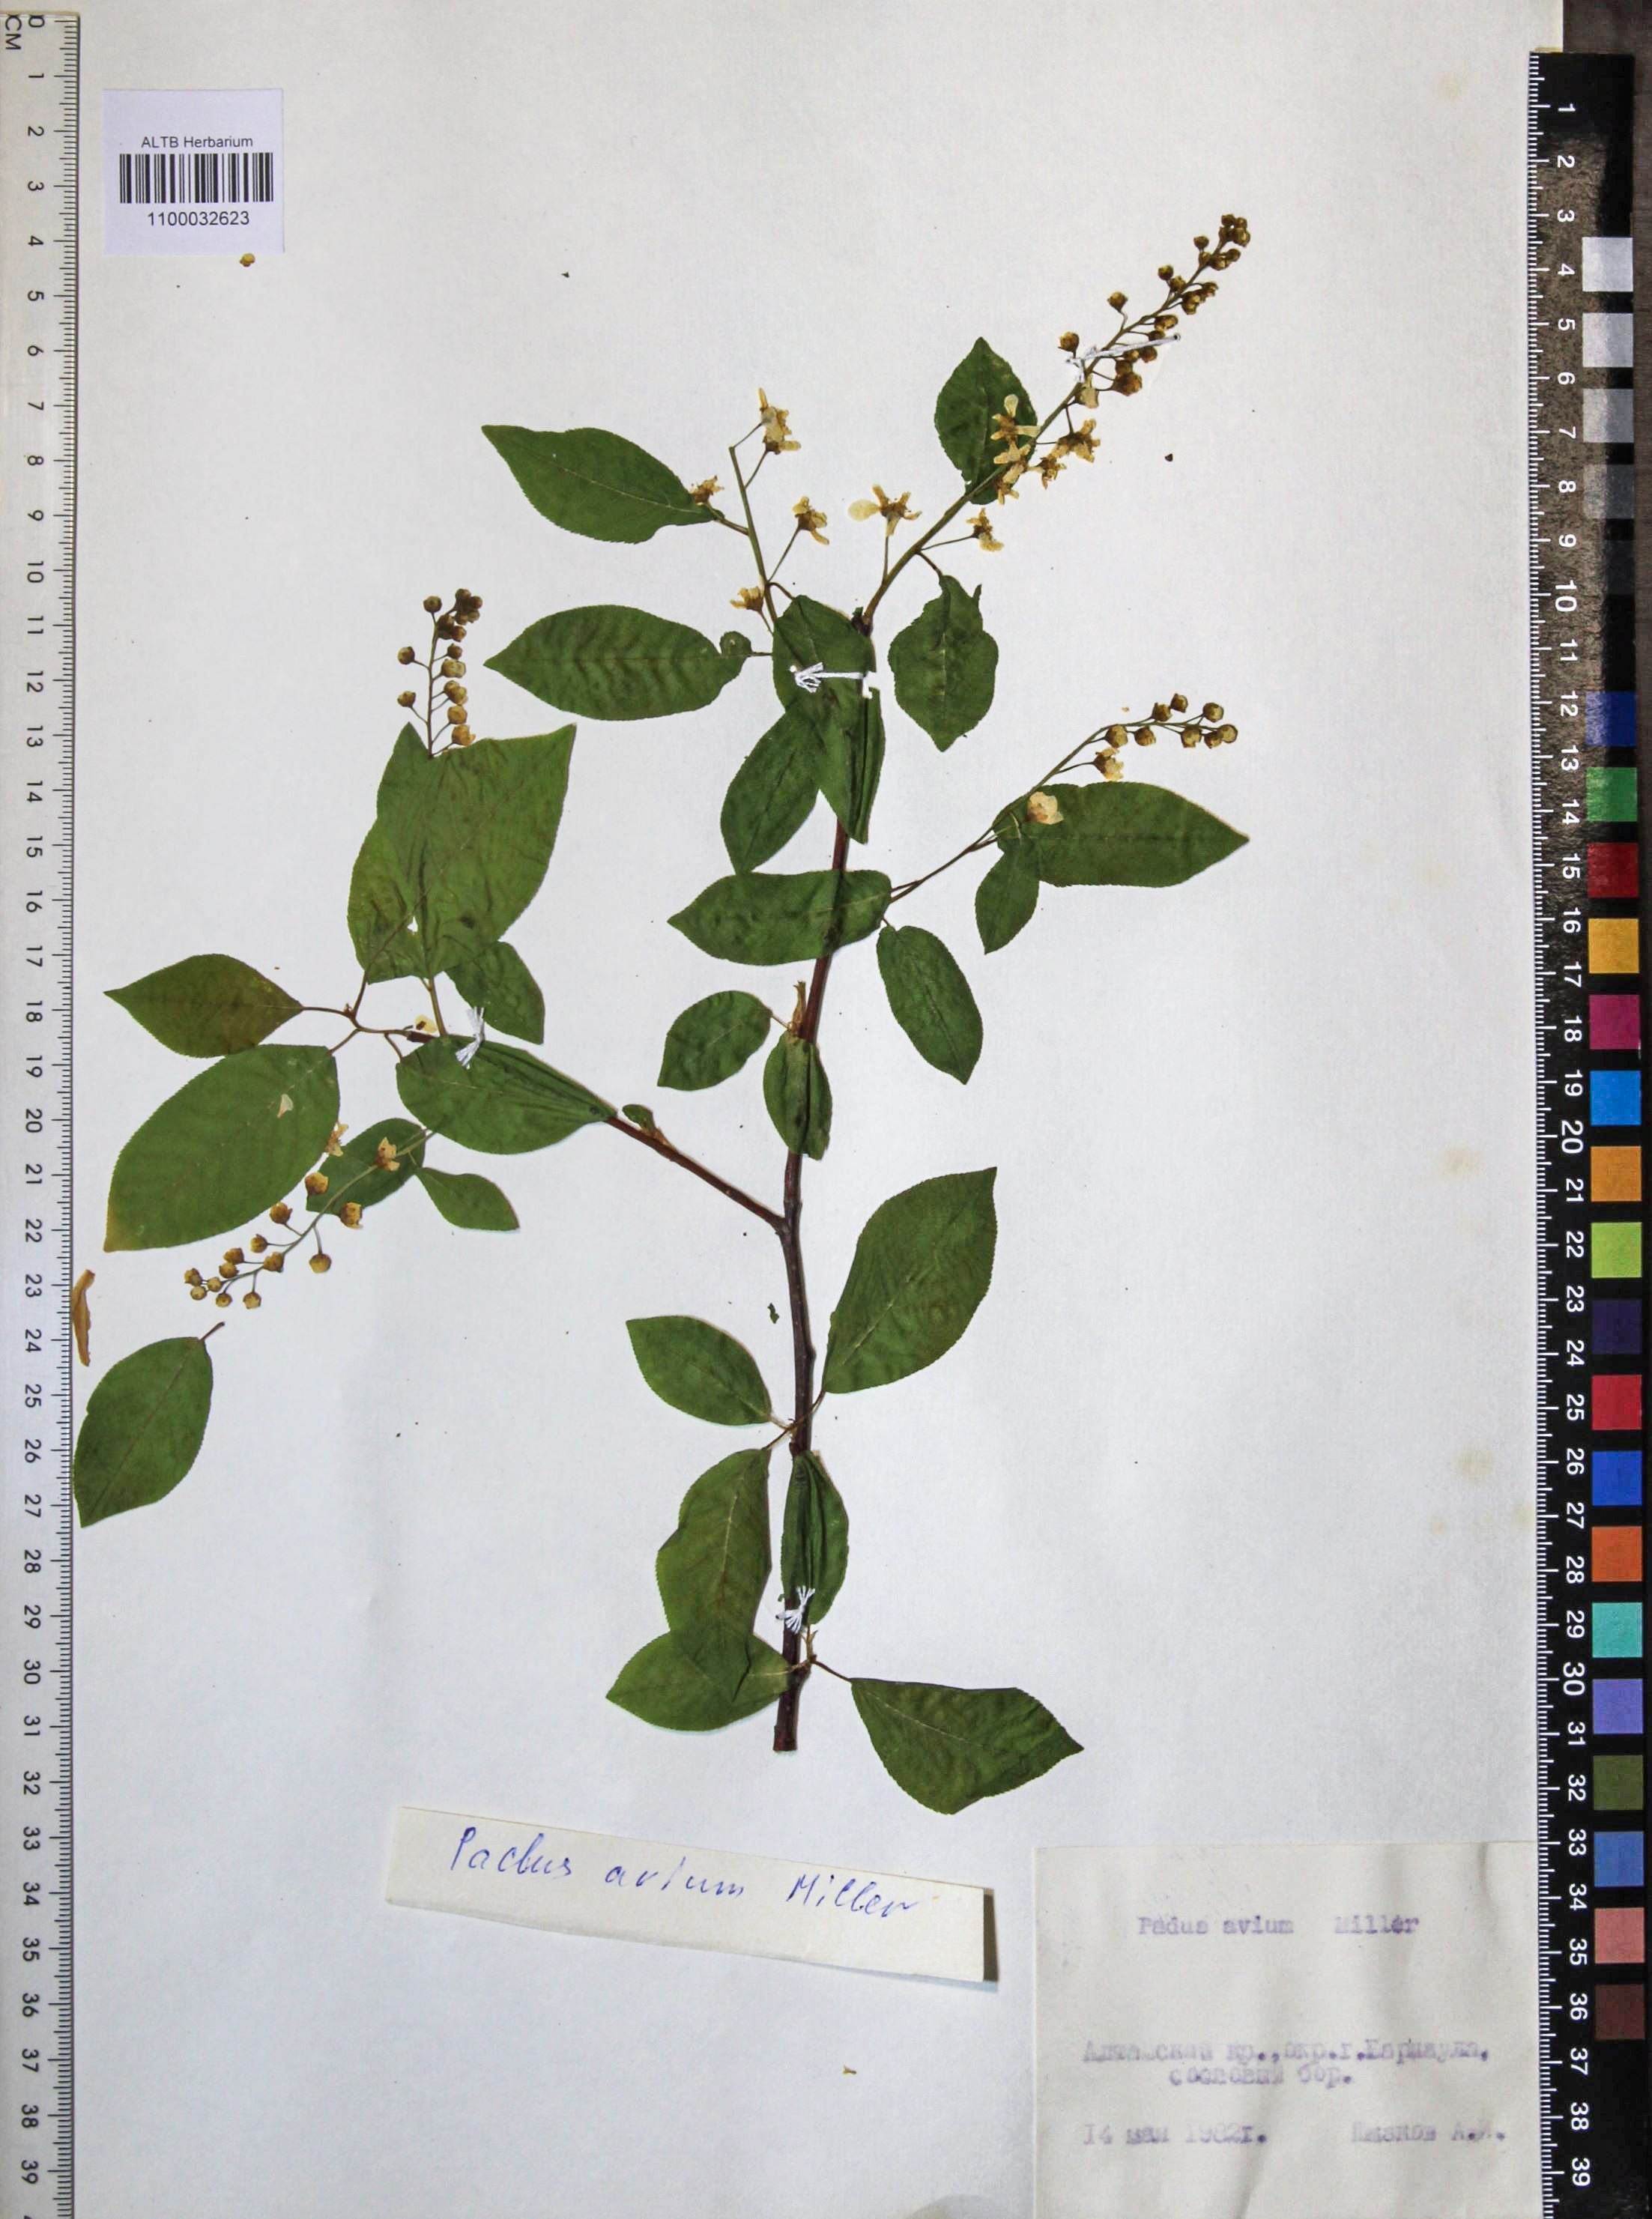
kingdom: Plantae
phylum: Tracheophyta
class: Magnoliopsida
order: Rosales
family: Rosaceae
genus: Prunus
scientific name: Prunus padus
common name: Bird cherry
